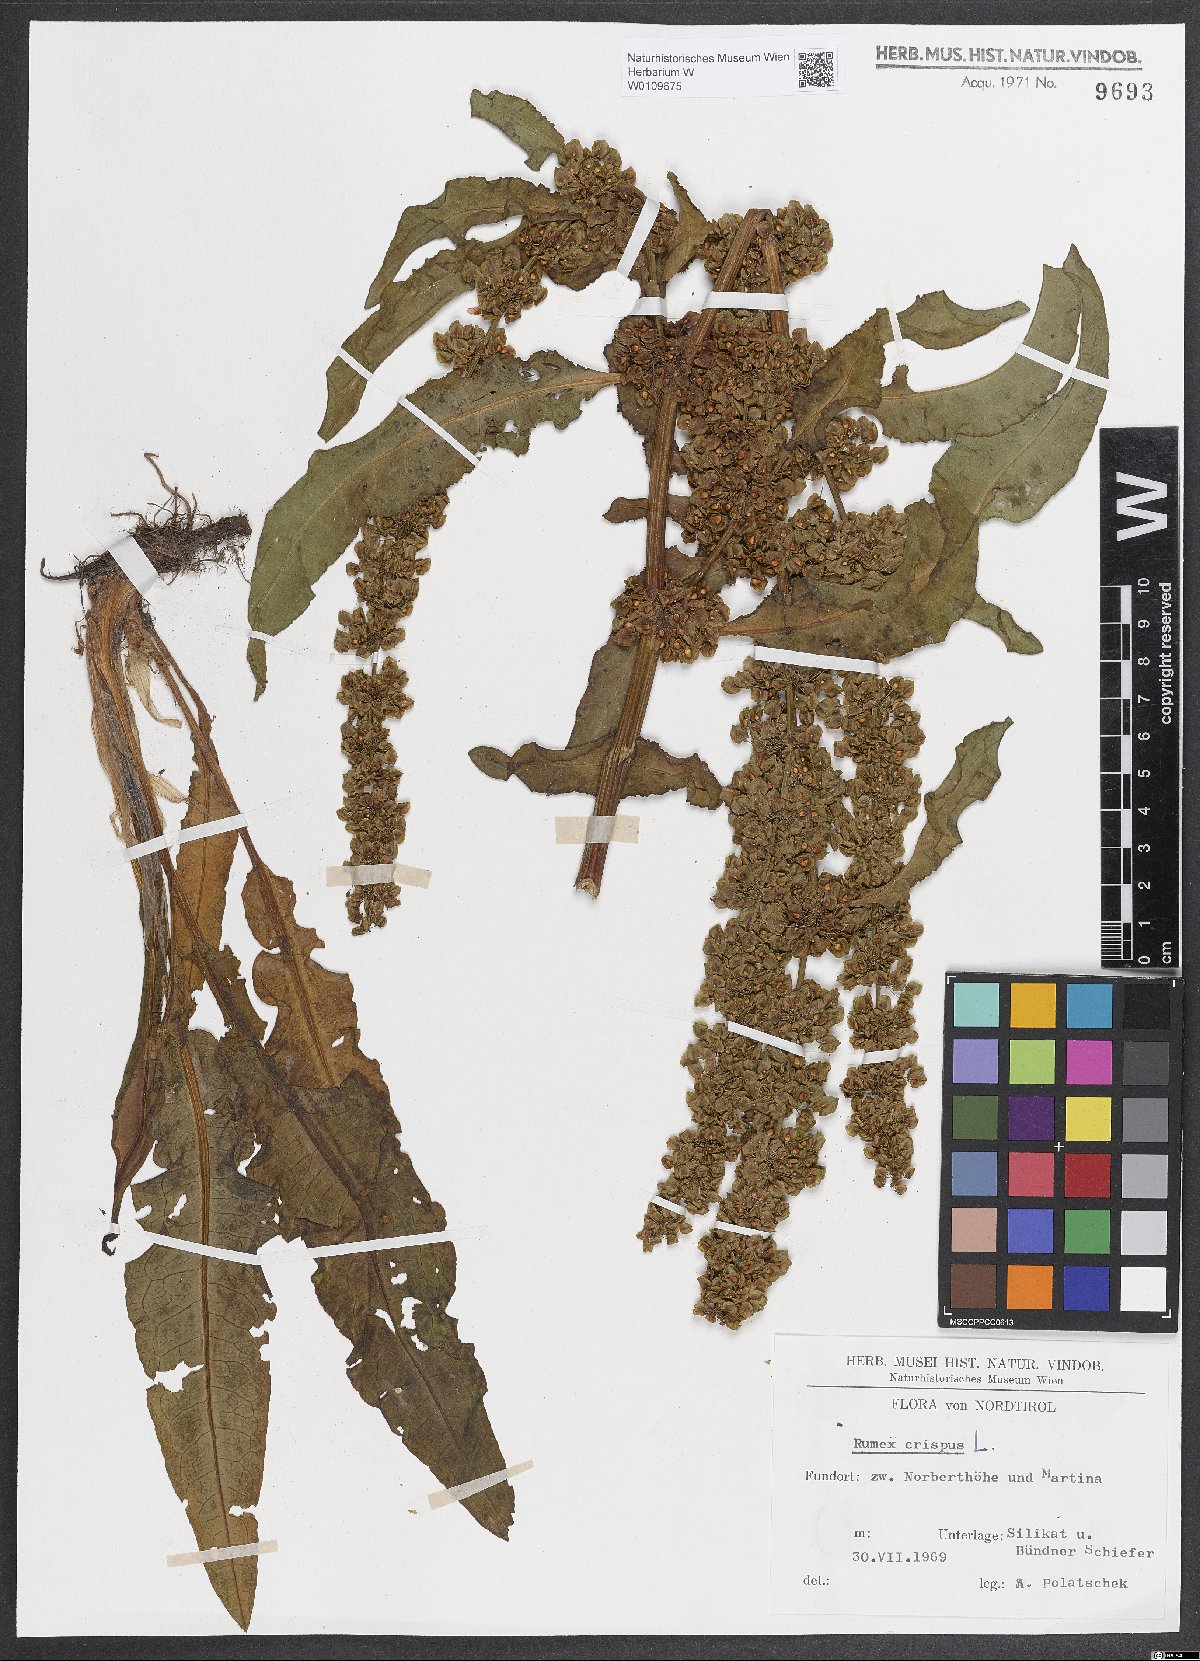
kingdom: Plantae
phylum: Tracheophyta
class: Magnoliopsida
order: Caryophyllales
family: Polygonaceae
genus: Rumex
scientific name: Rumex crispus
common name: Curled dock
